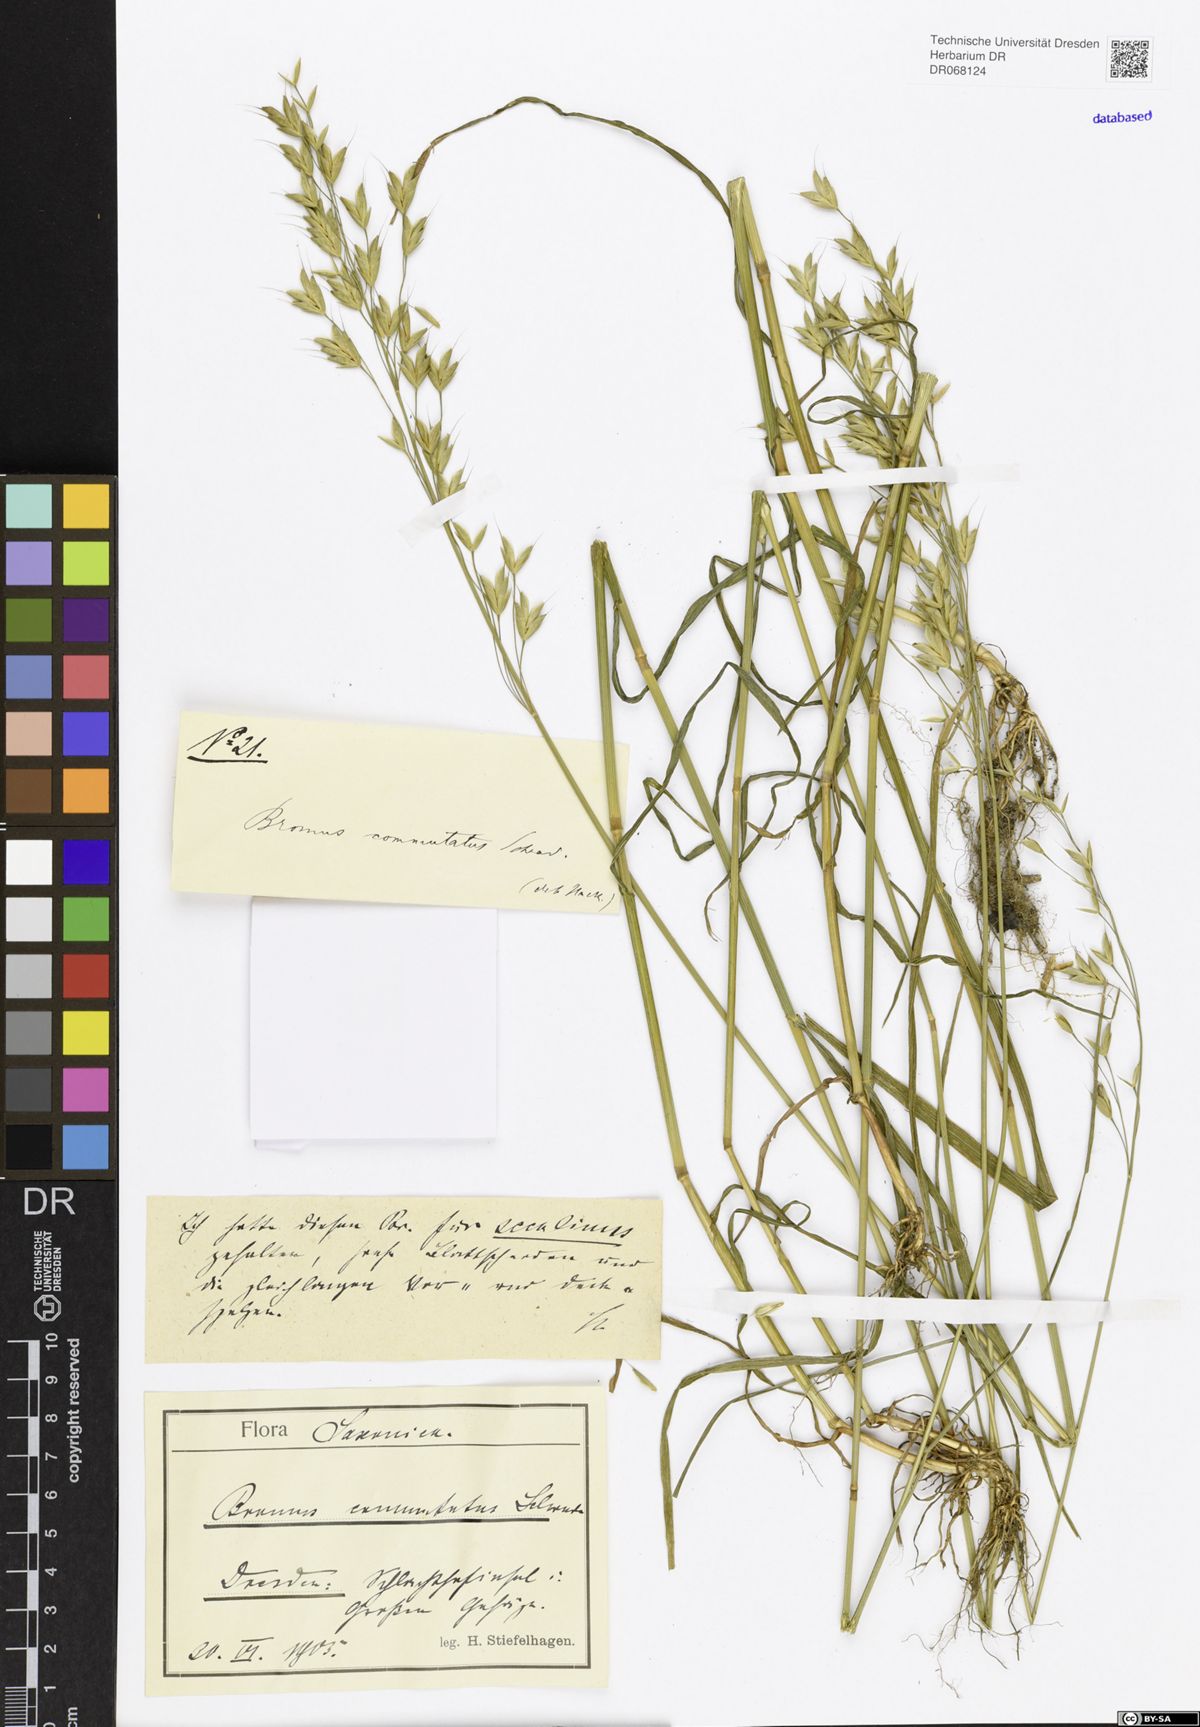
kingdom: Plantae
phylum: Tracheophyta
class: Liliopsida
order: Poales
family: Poaceae
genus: Bromus
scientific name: Bromus commutatus
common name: Meadow brome
